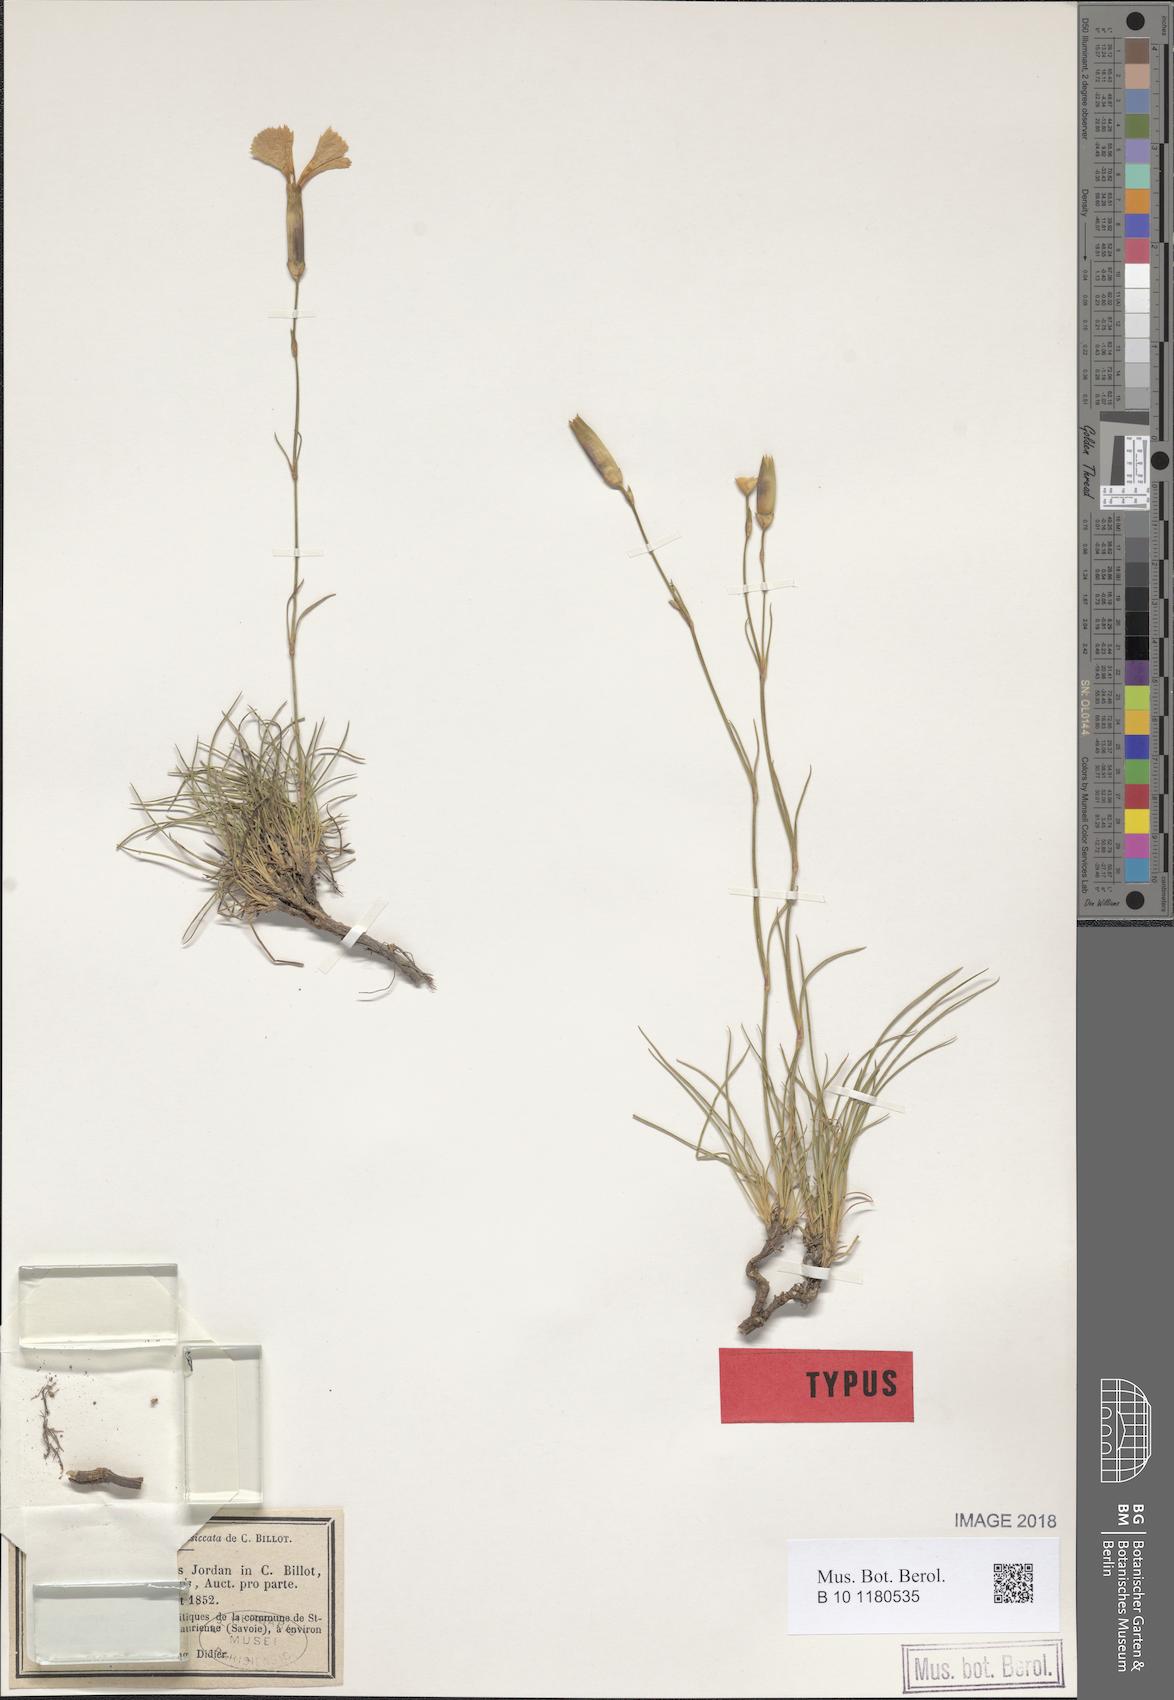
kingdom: Plantae
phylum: Tracheophyta
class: Magnoliopsida
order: Caryophyllales
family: Caryophyllaceae
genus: Dianthus
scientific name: Dianthus sylvestris
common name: Wood pink
